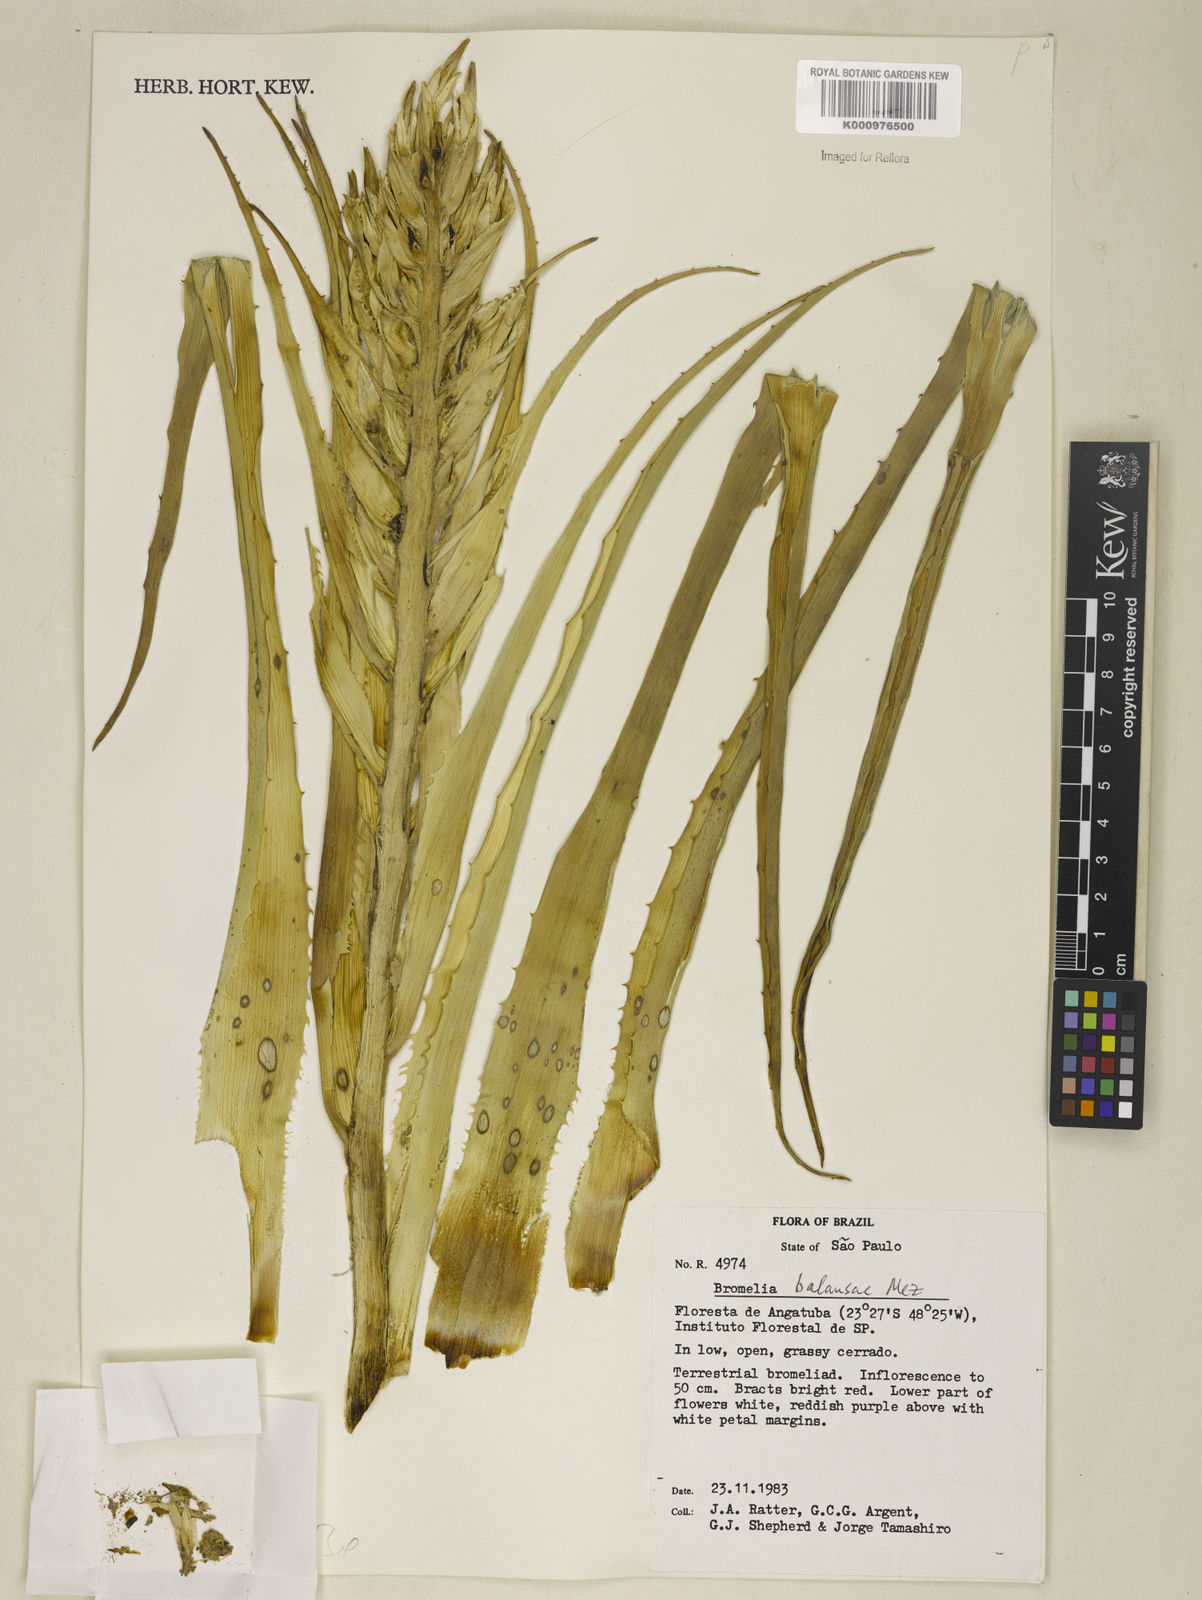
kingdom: Plantae
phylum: Tracheophyta
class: Liliopsida
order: Poales
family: Bromeliaceae
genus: Bromelia
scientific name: Bromelia balansae
